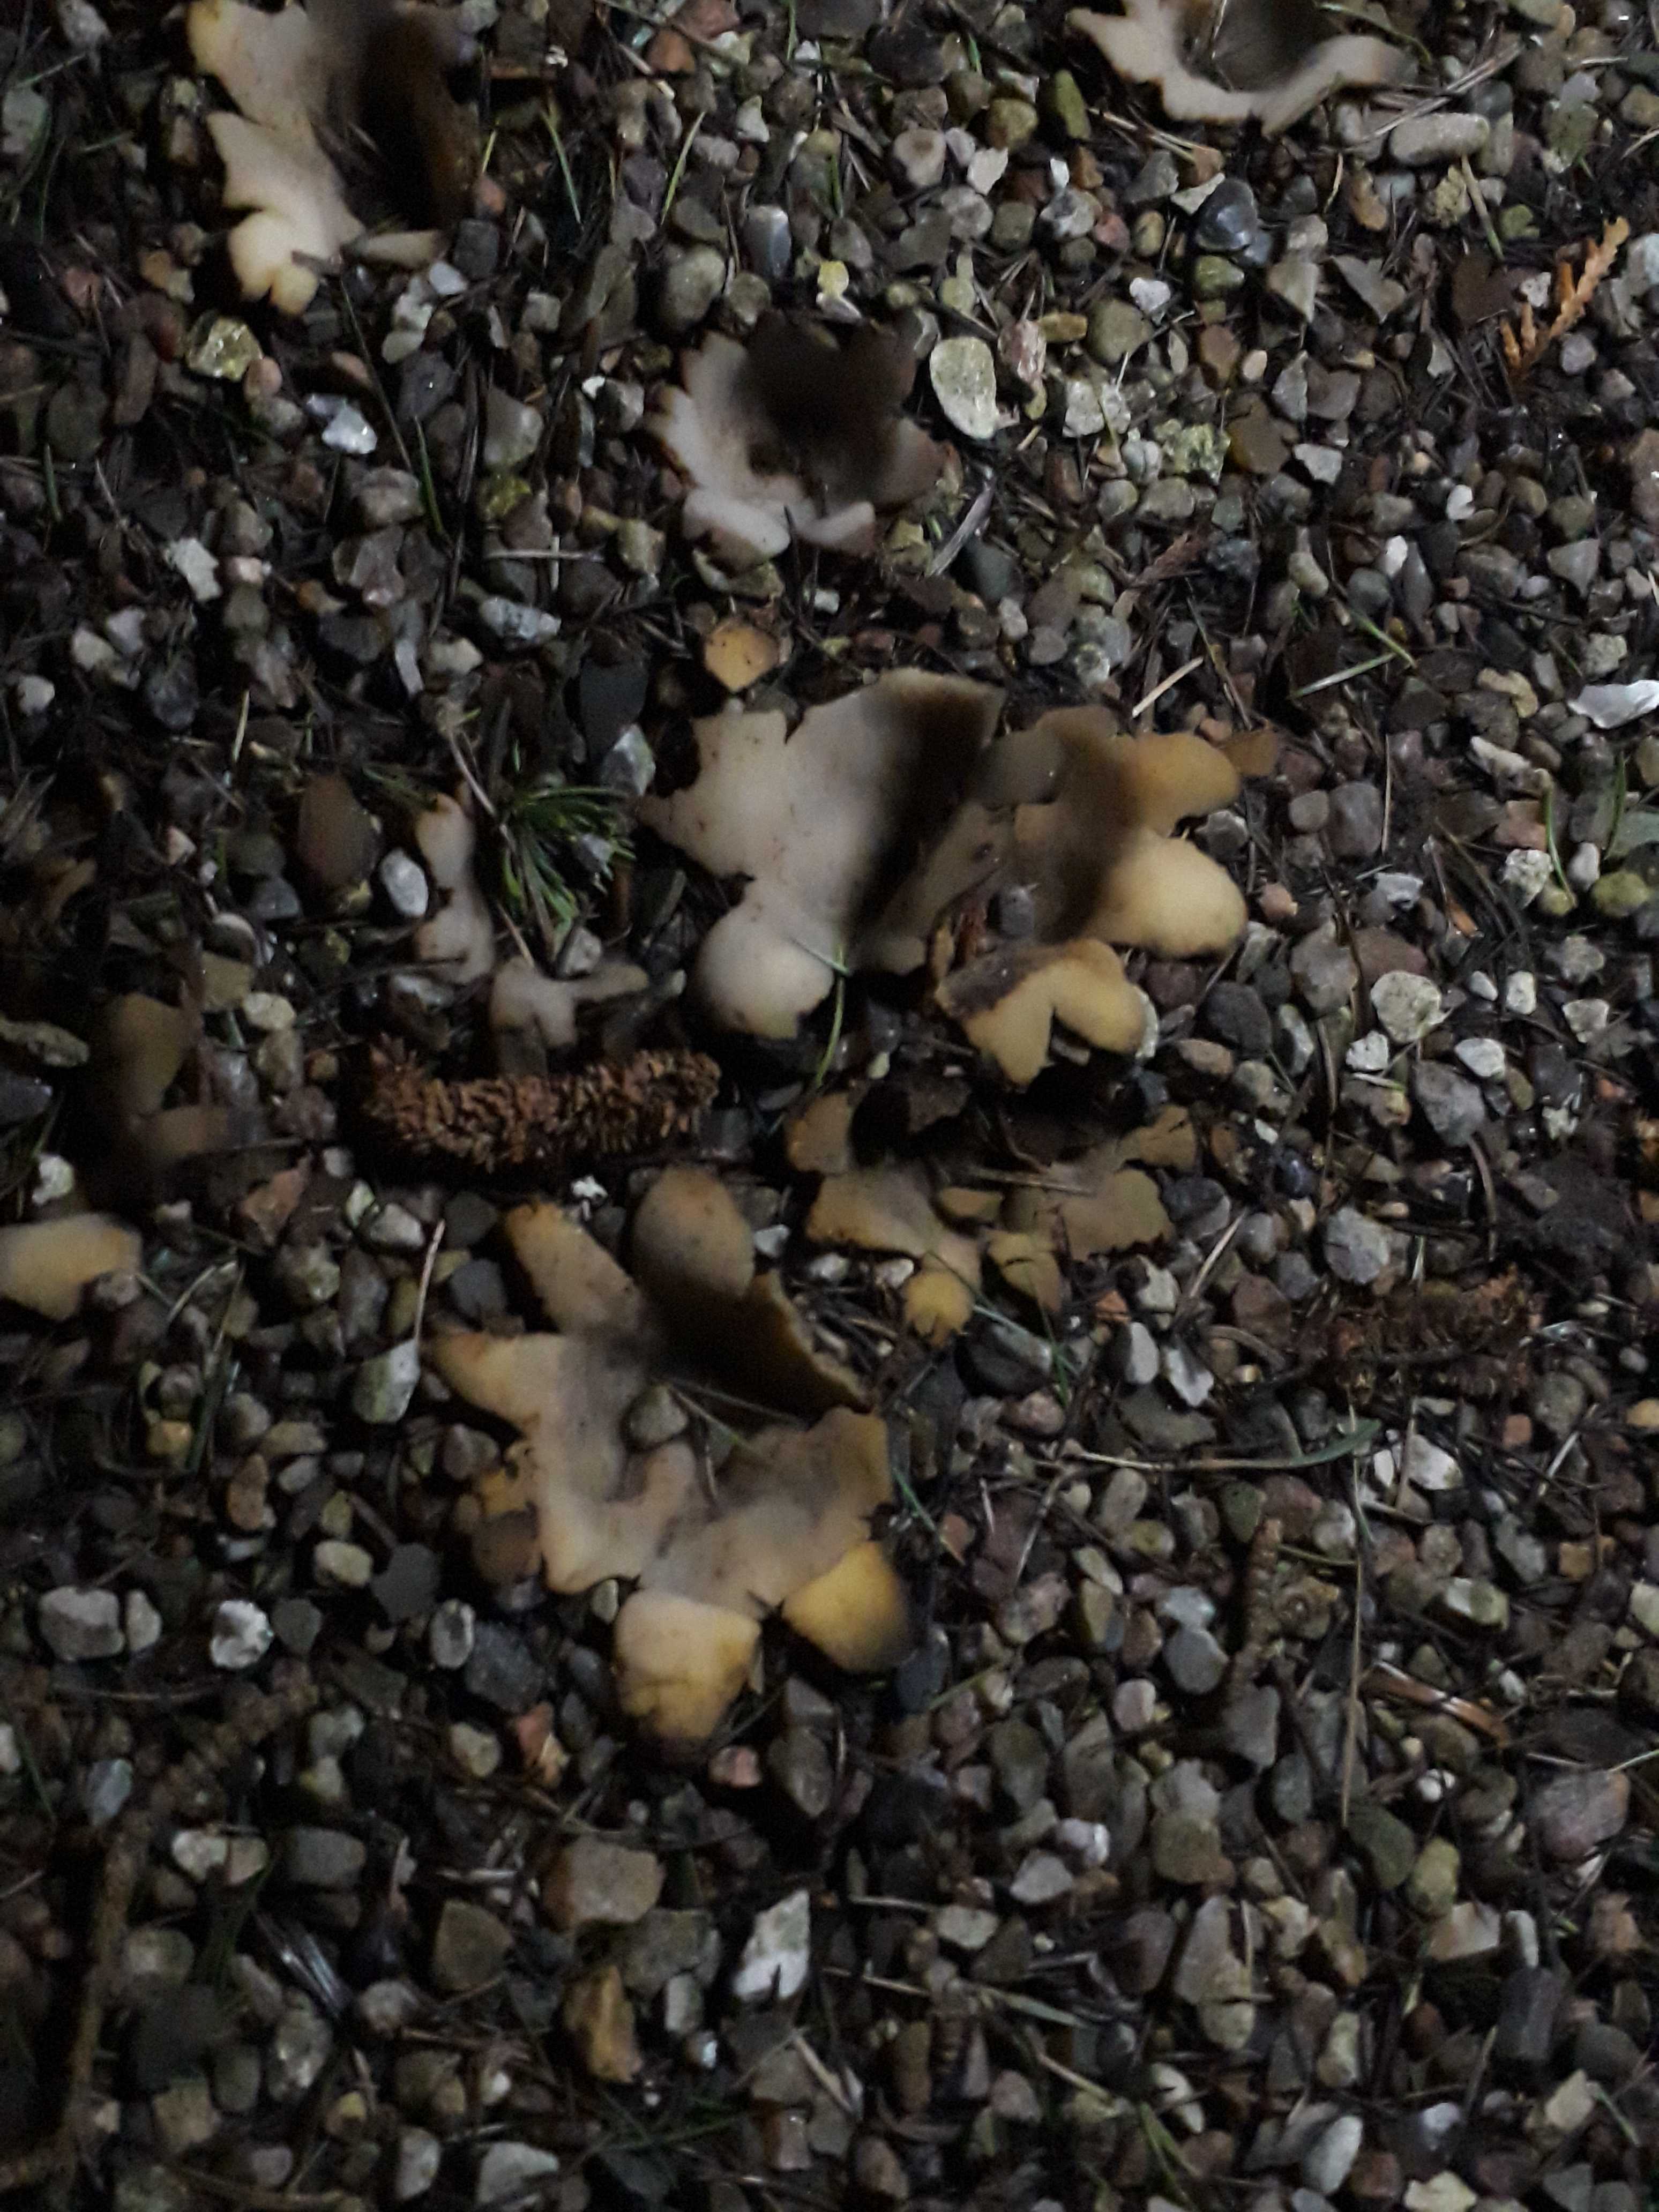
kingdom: Fungi
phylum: Ascomycota
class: Pezizomycetes
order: Pezizales
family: Pyronemataceae
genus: Geopora
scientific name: Geopora sumneriana
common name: vår-jordbæger
